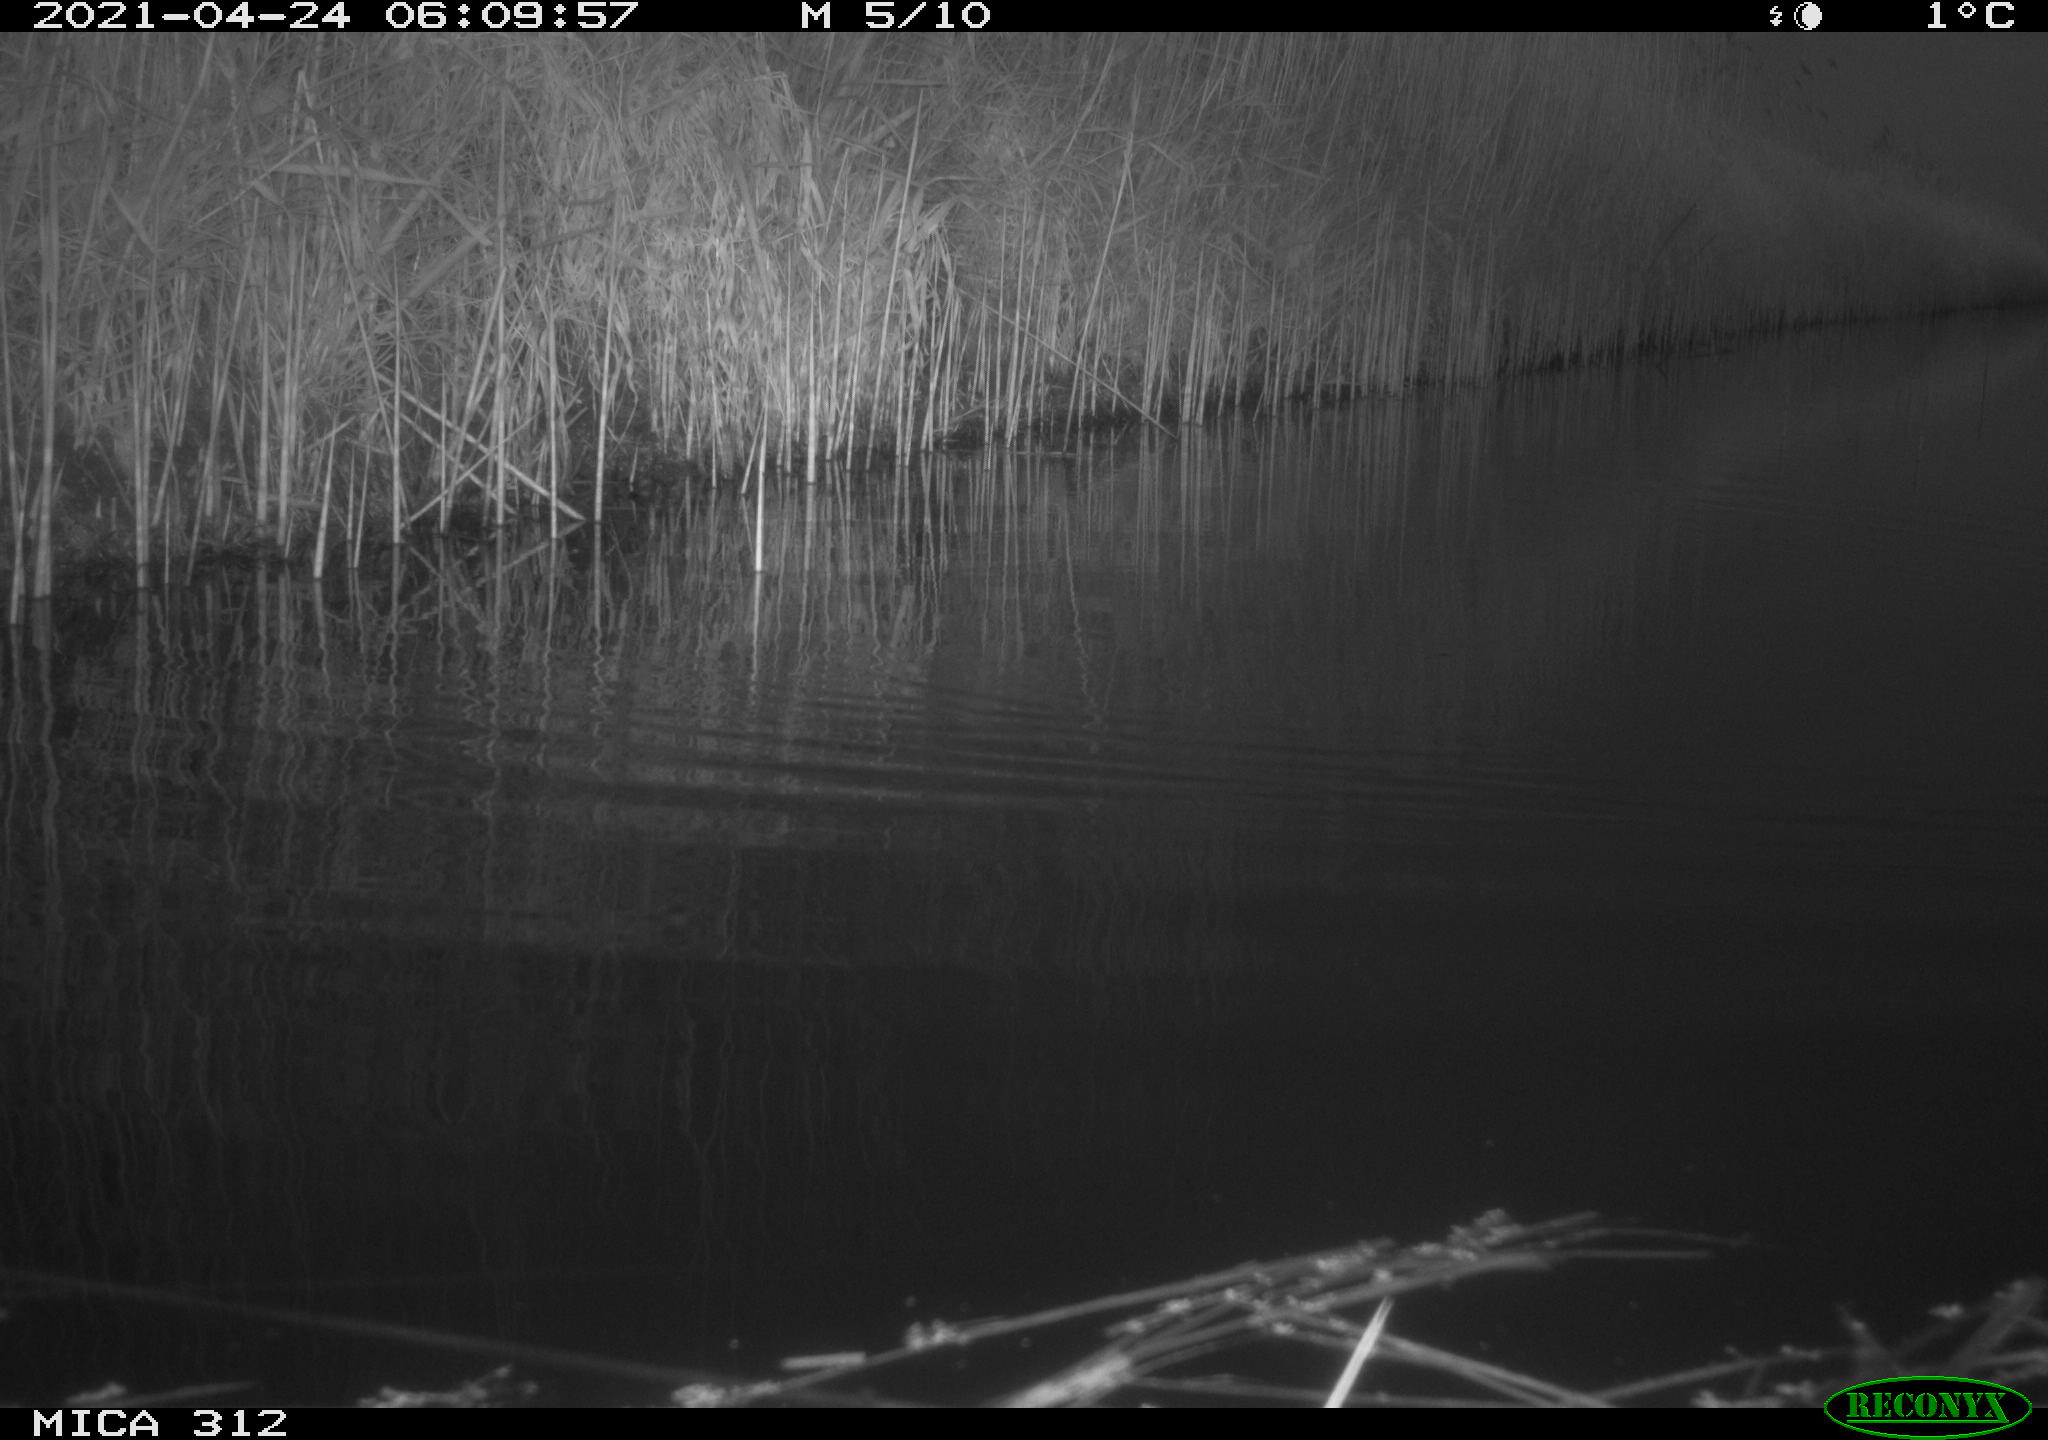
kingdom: Animalia
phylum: Chordata
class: Aves
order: Gruiformes
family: Rallidae
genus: Fulica
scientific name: Fulica atra
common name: Eurasian coot
